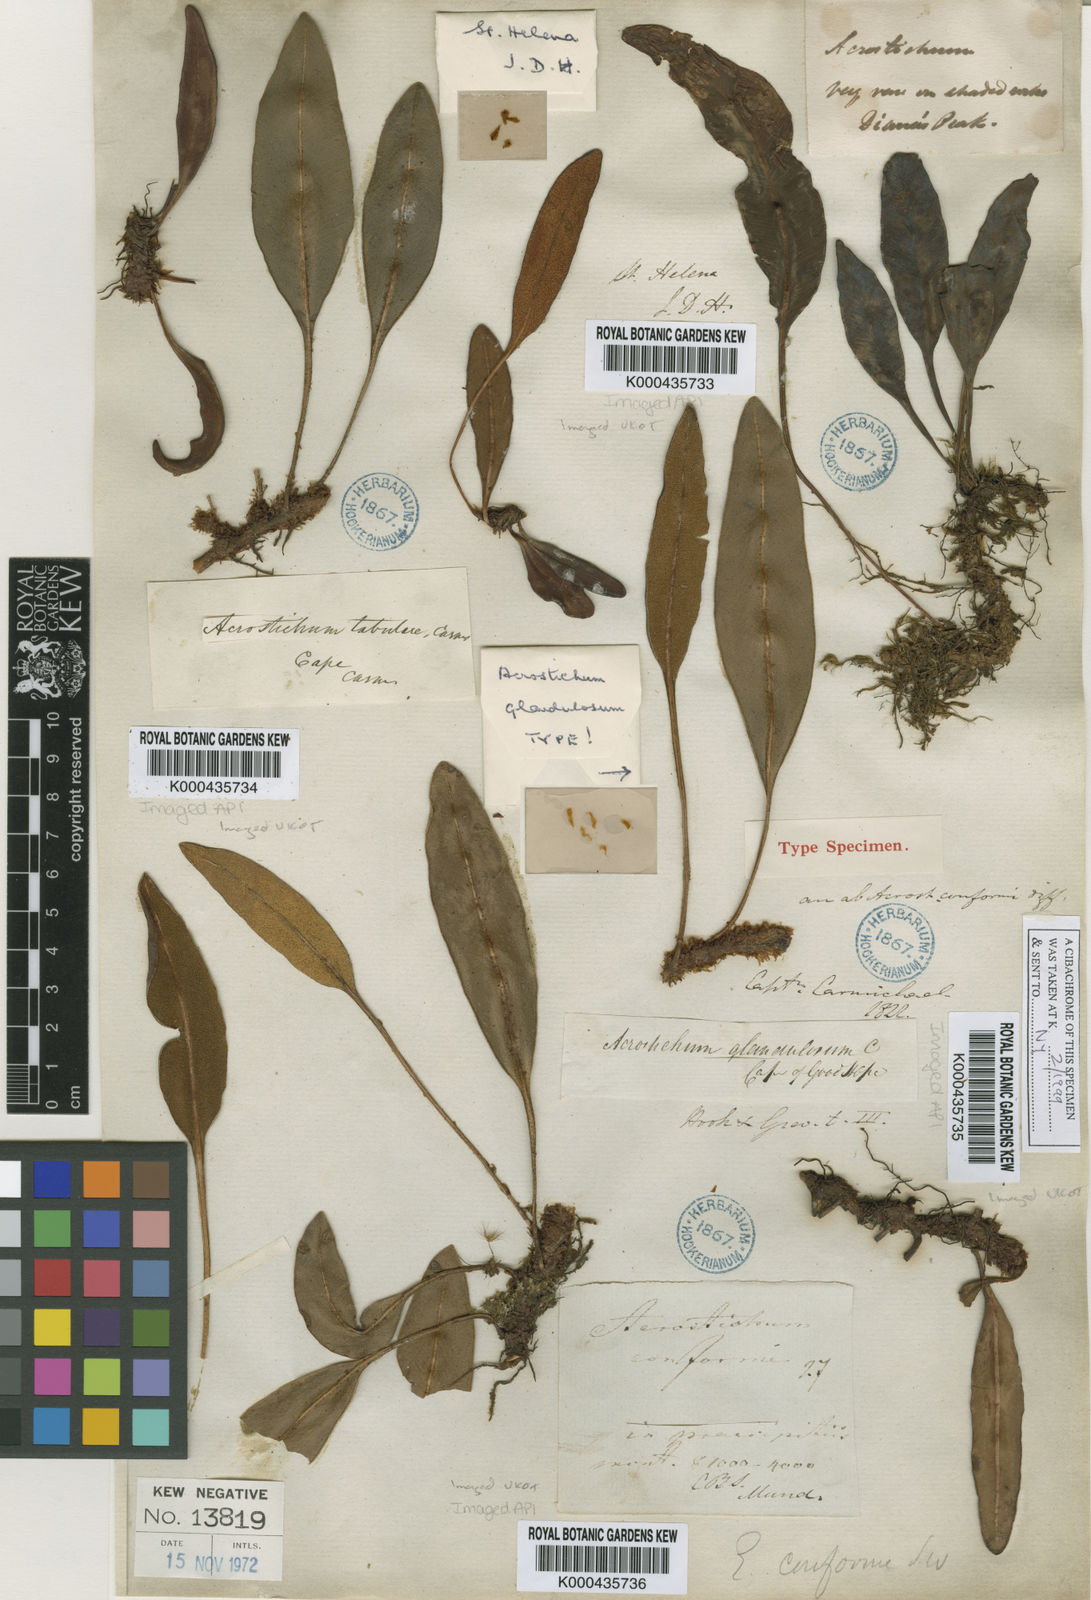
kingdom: Plantae
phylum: Tracheophyta
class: Polypodiopsida
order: Polypodiales
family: Dryopteridaceae
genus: Elaphoglossum
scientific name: Elaphoglossum conforme
